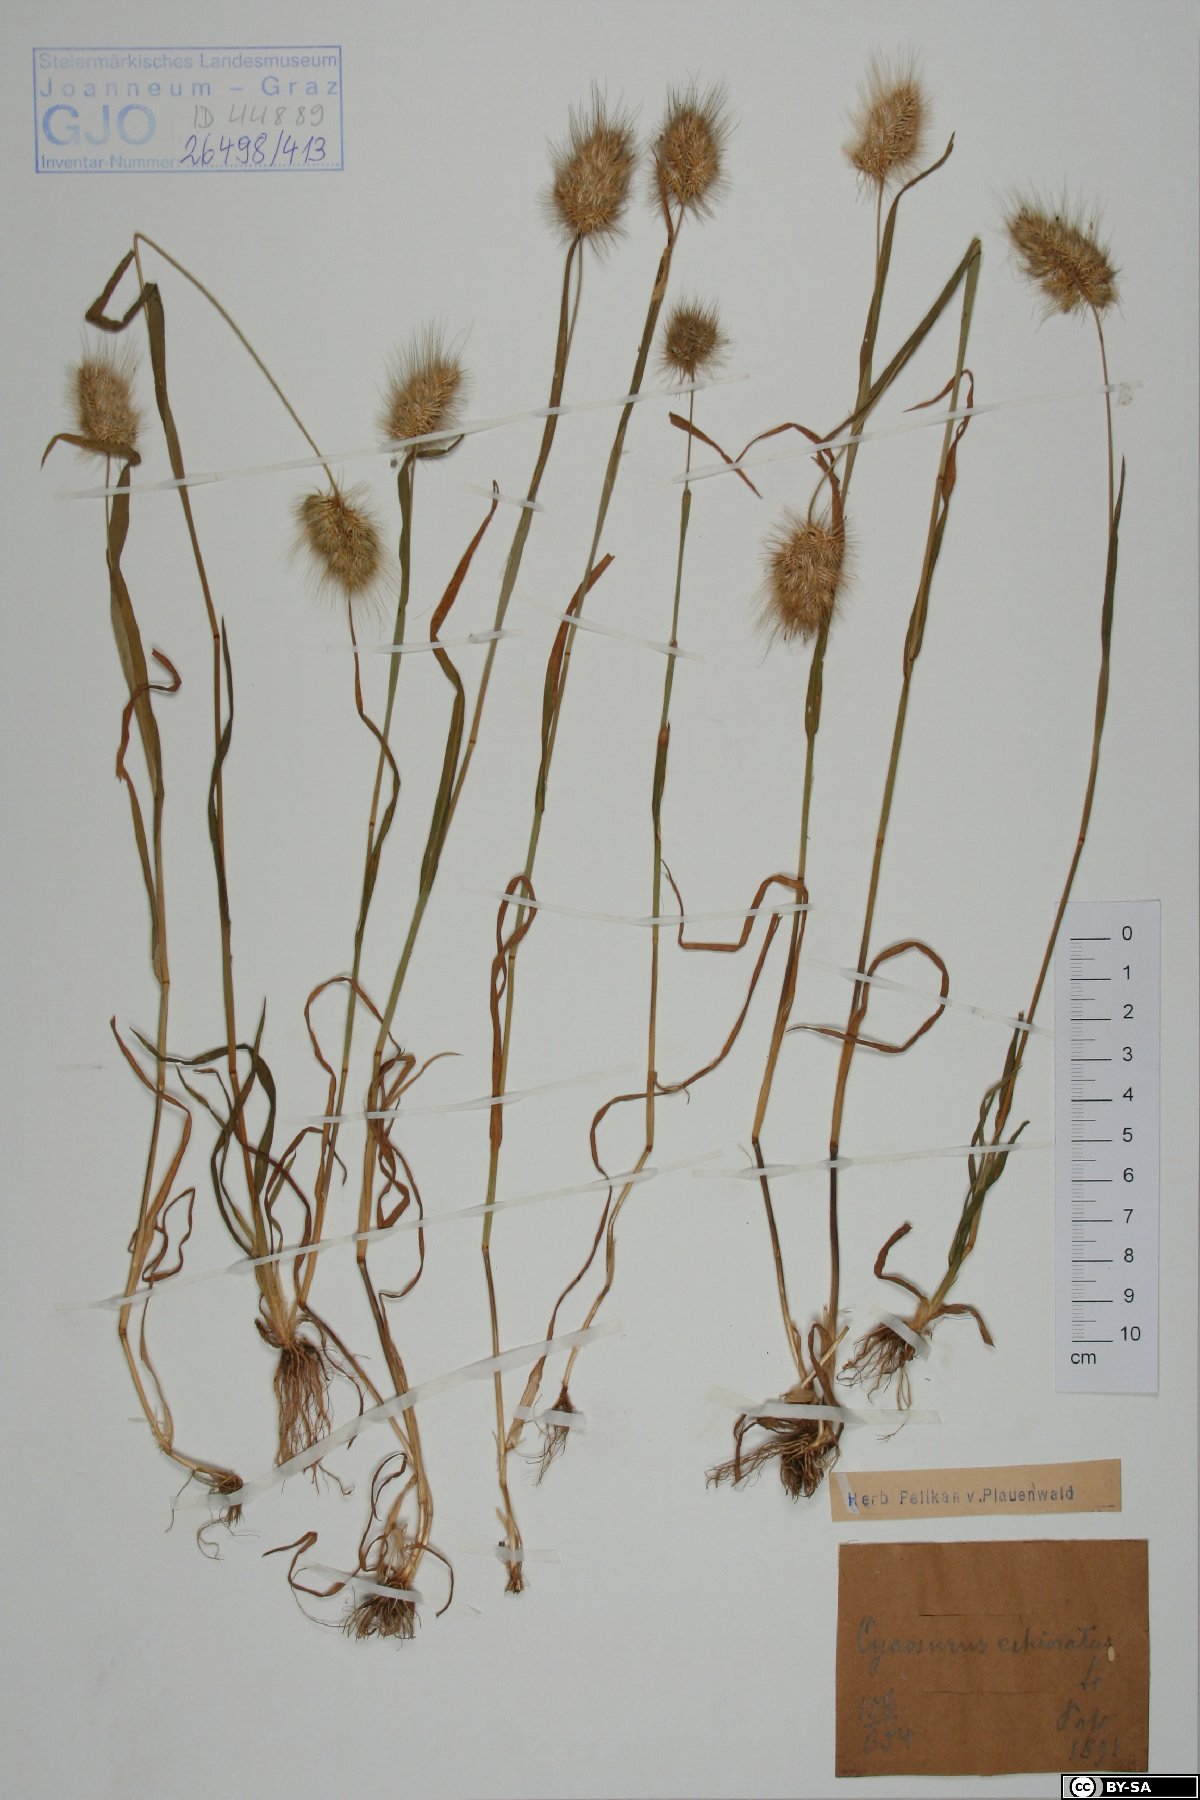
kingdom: Plantae
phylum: Tracheophyta
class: Liliopsida
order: Poales
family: Poaceae
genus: Cynosurus
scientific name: Cynosurus echinatus
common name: Rough dog's-tail
